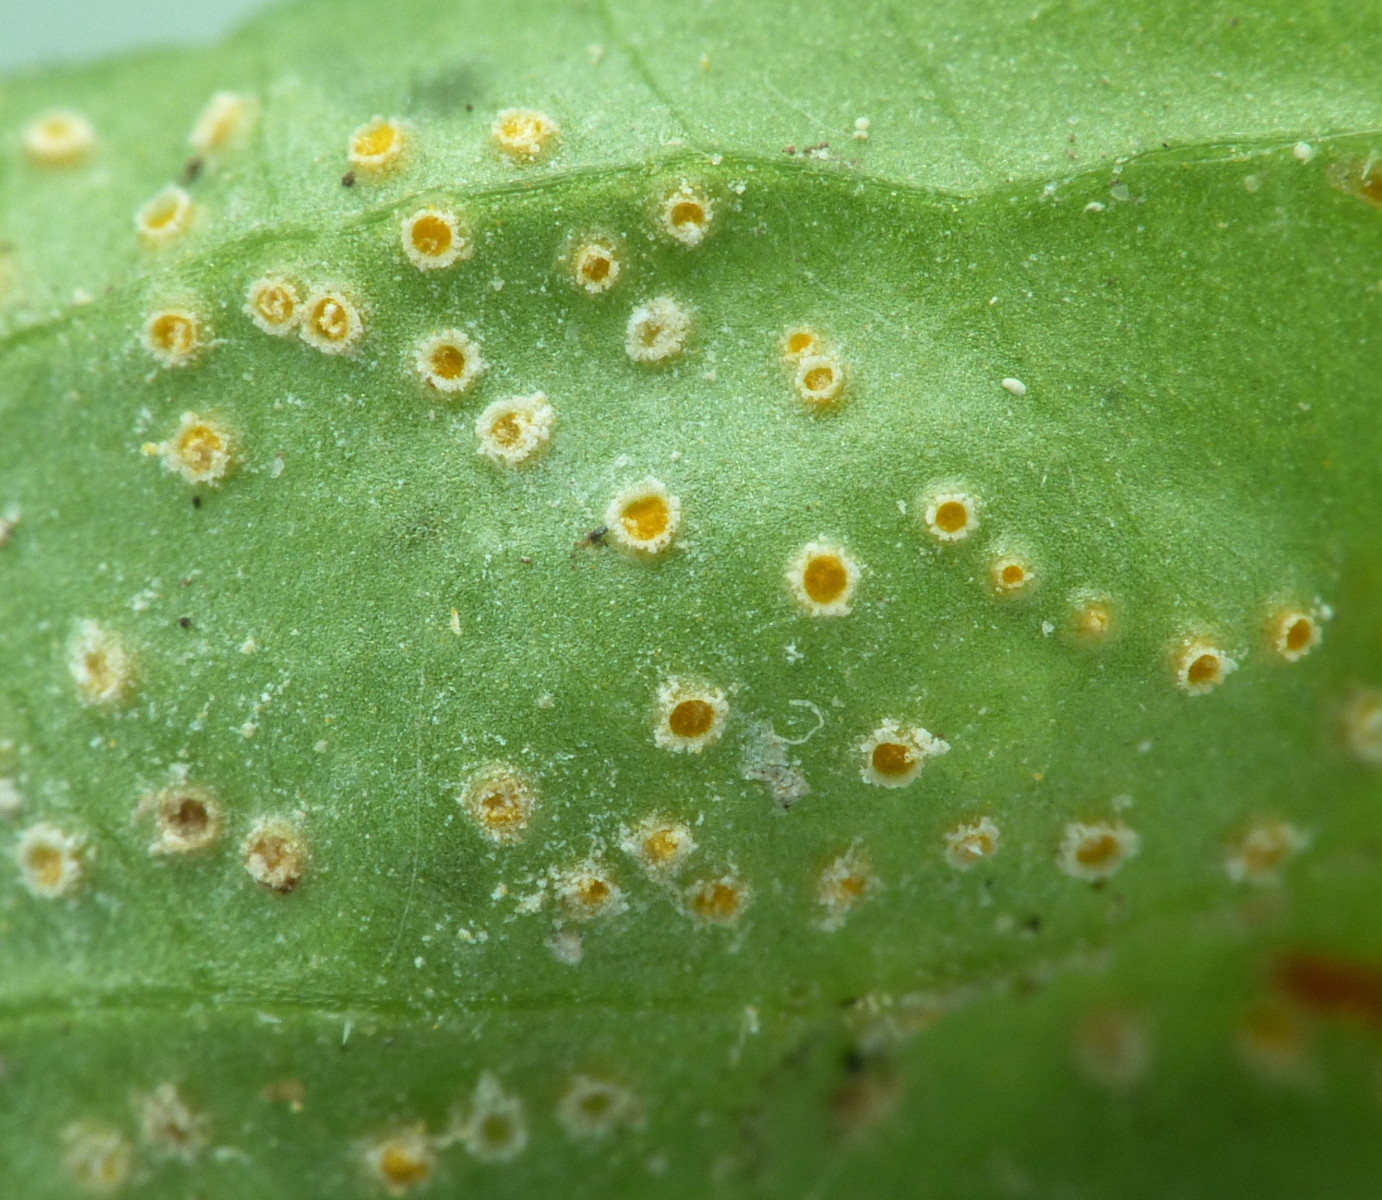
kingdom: Fungi
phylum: Basidiomycota
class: Pucciniomycetes
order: Pucciniales
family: Pucciniaceae
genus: Puccinia
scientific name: Puccinia violae
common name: viol-tvecellerust
